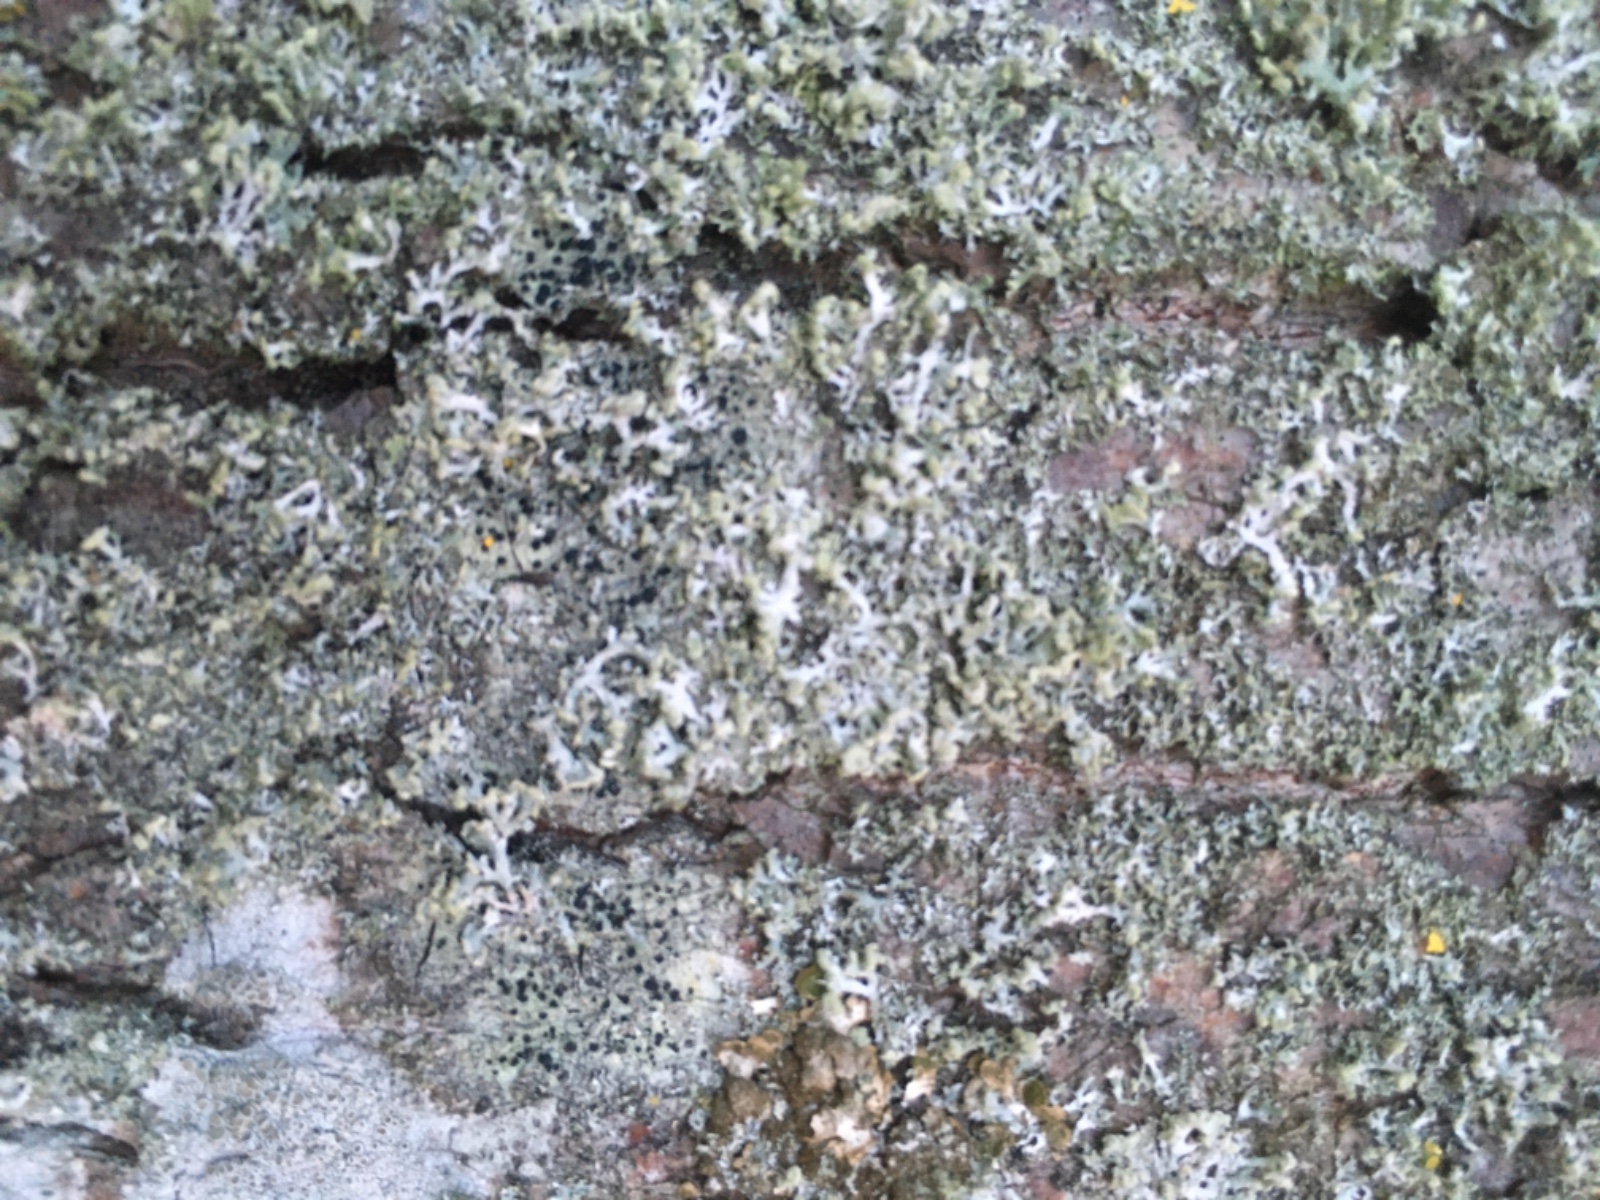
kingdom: Fungi
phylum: Ascomycota
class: Lecanoromycetes
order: Caliciales
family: Physciaceae
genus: Physcia
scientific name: Physcia tenella
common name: spæd rosetlav
